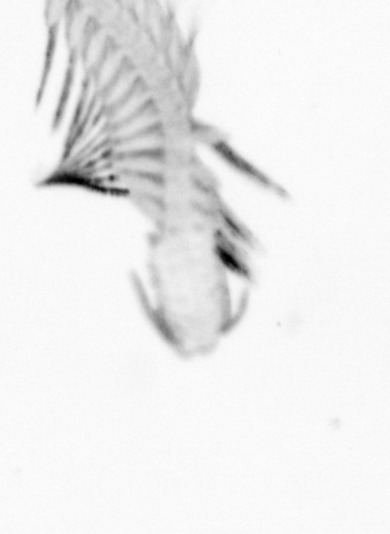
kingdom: Animalia
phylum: Annelida
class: Polychaeta
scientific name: Polychaeta
